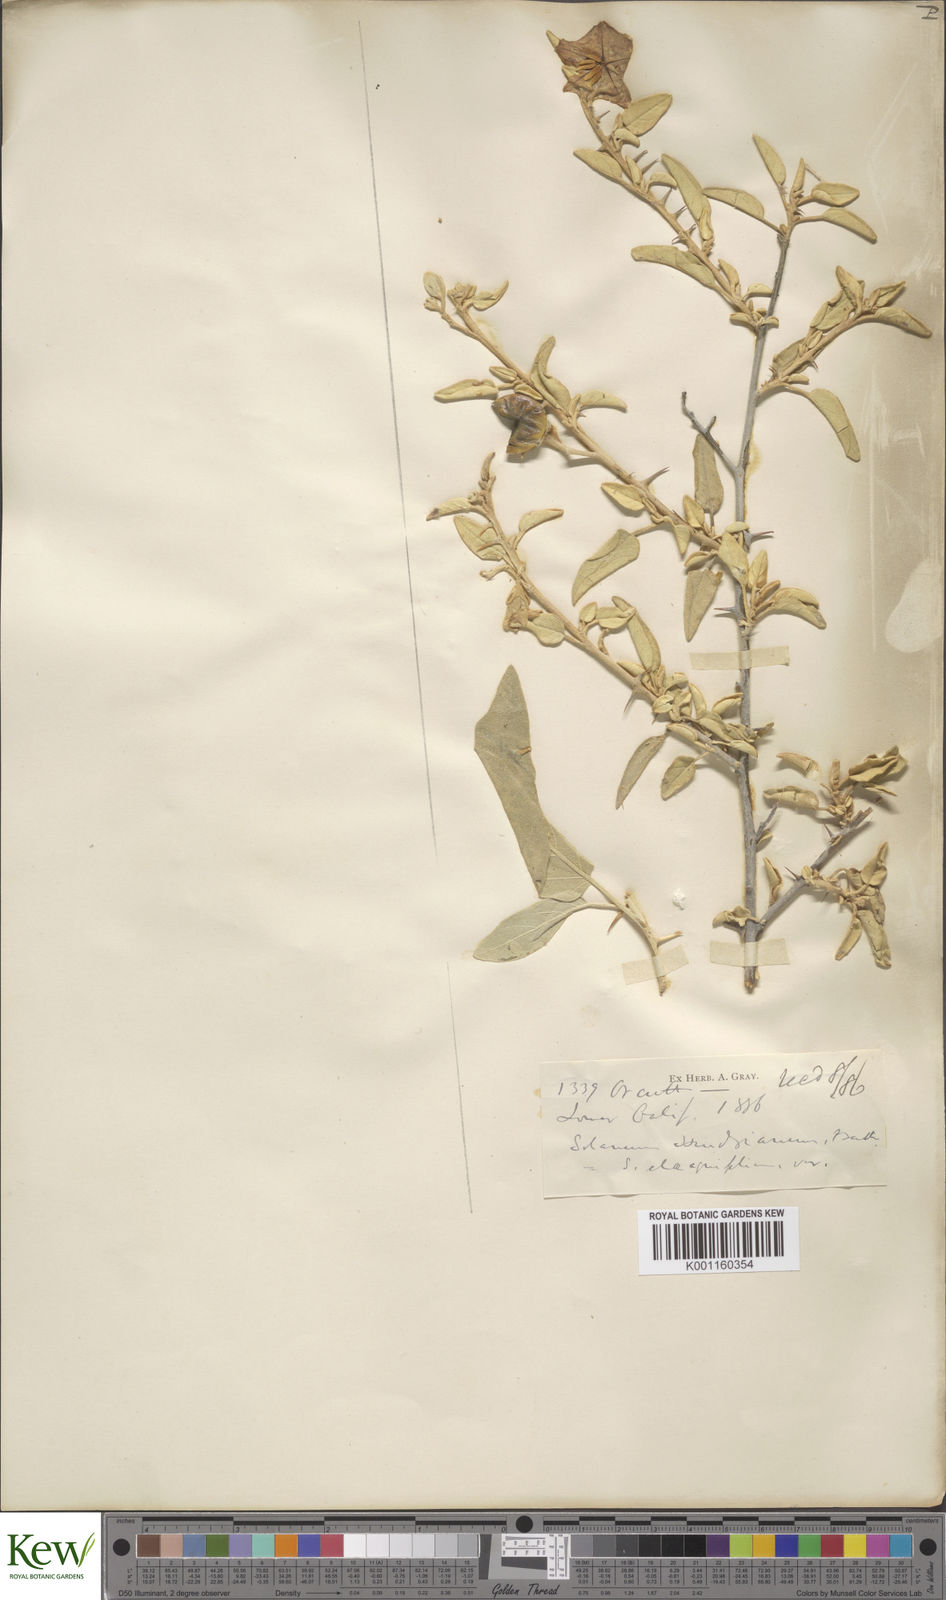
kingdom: Plantae
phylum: Tracheophyta
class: Magnoliopsida
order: Solanales
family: Solanaceae
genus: Solanum
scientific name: Solanum hindsianum
